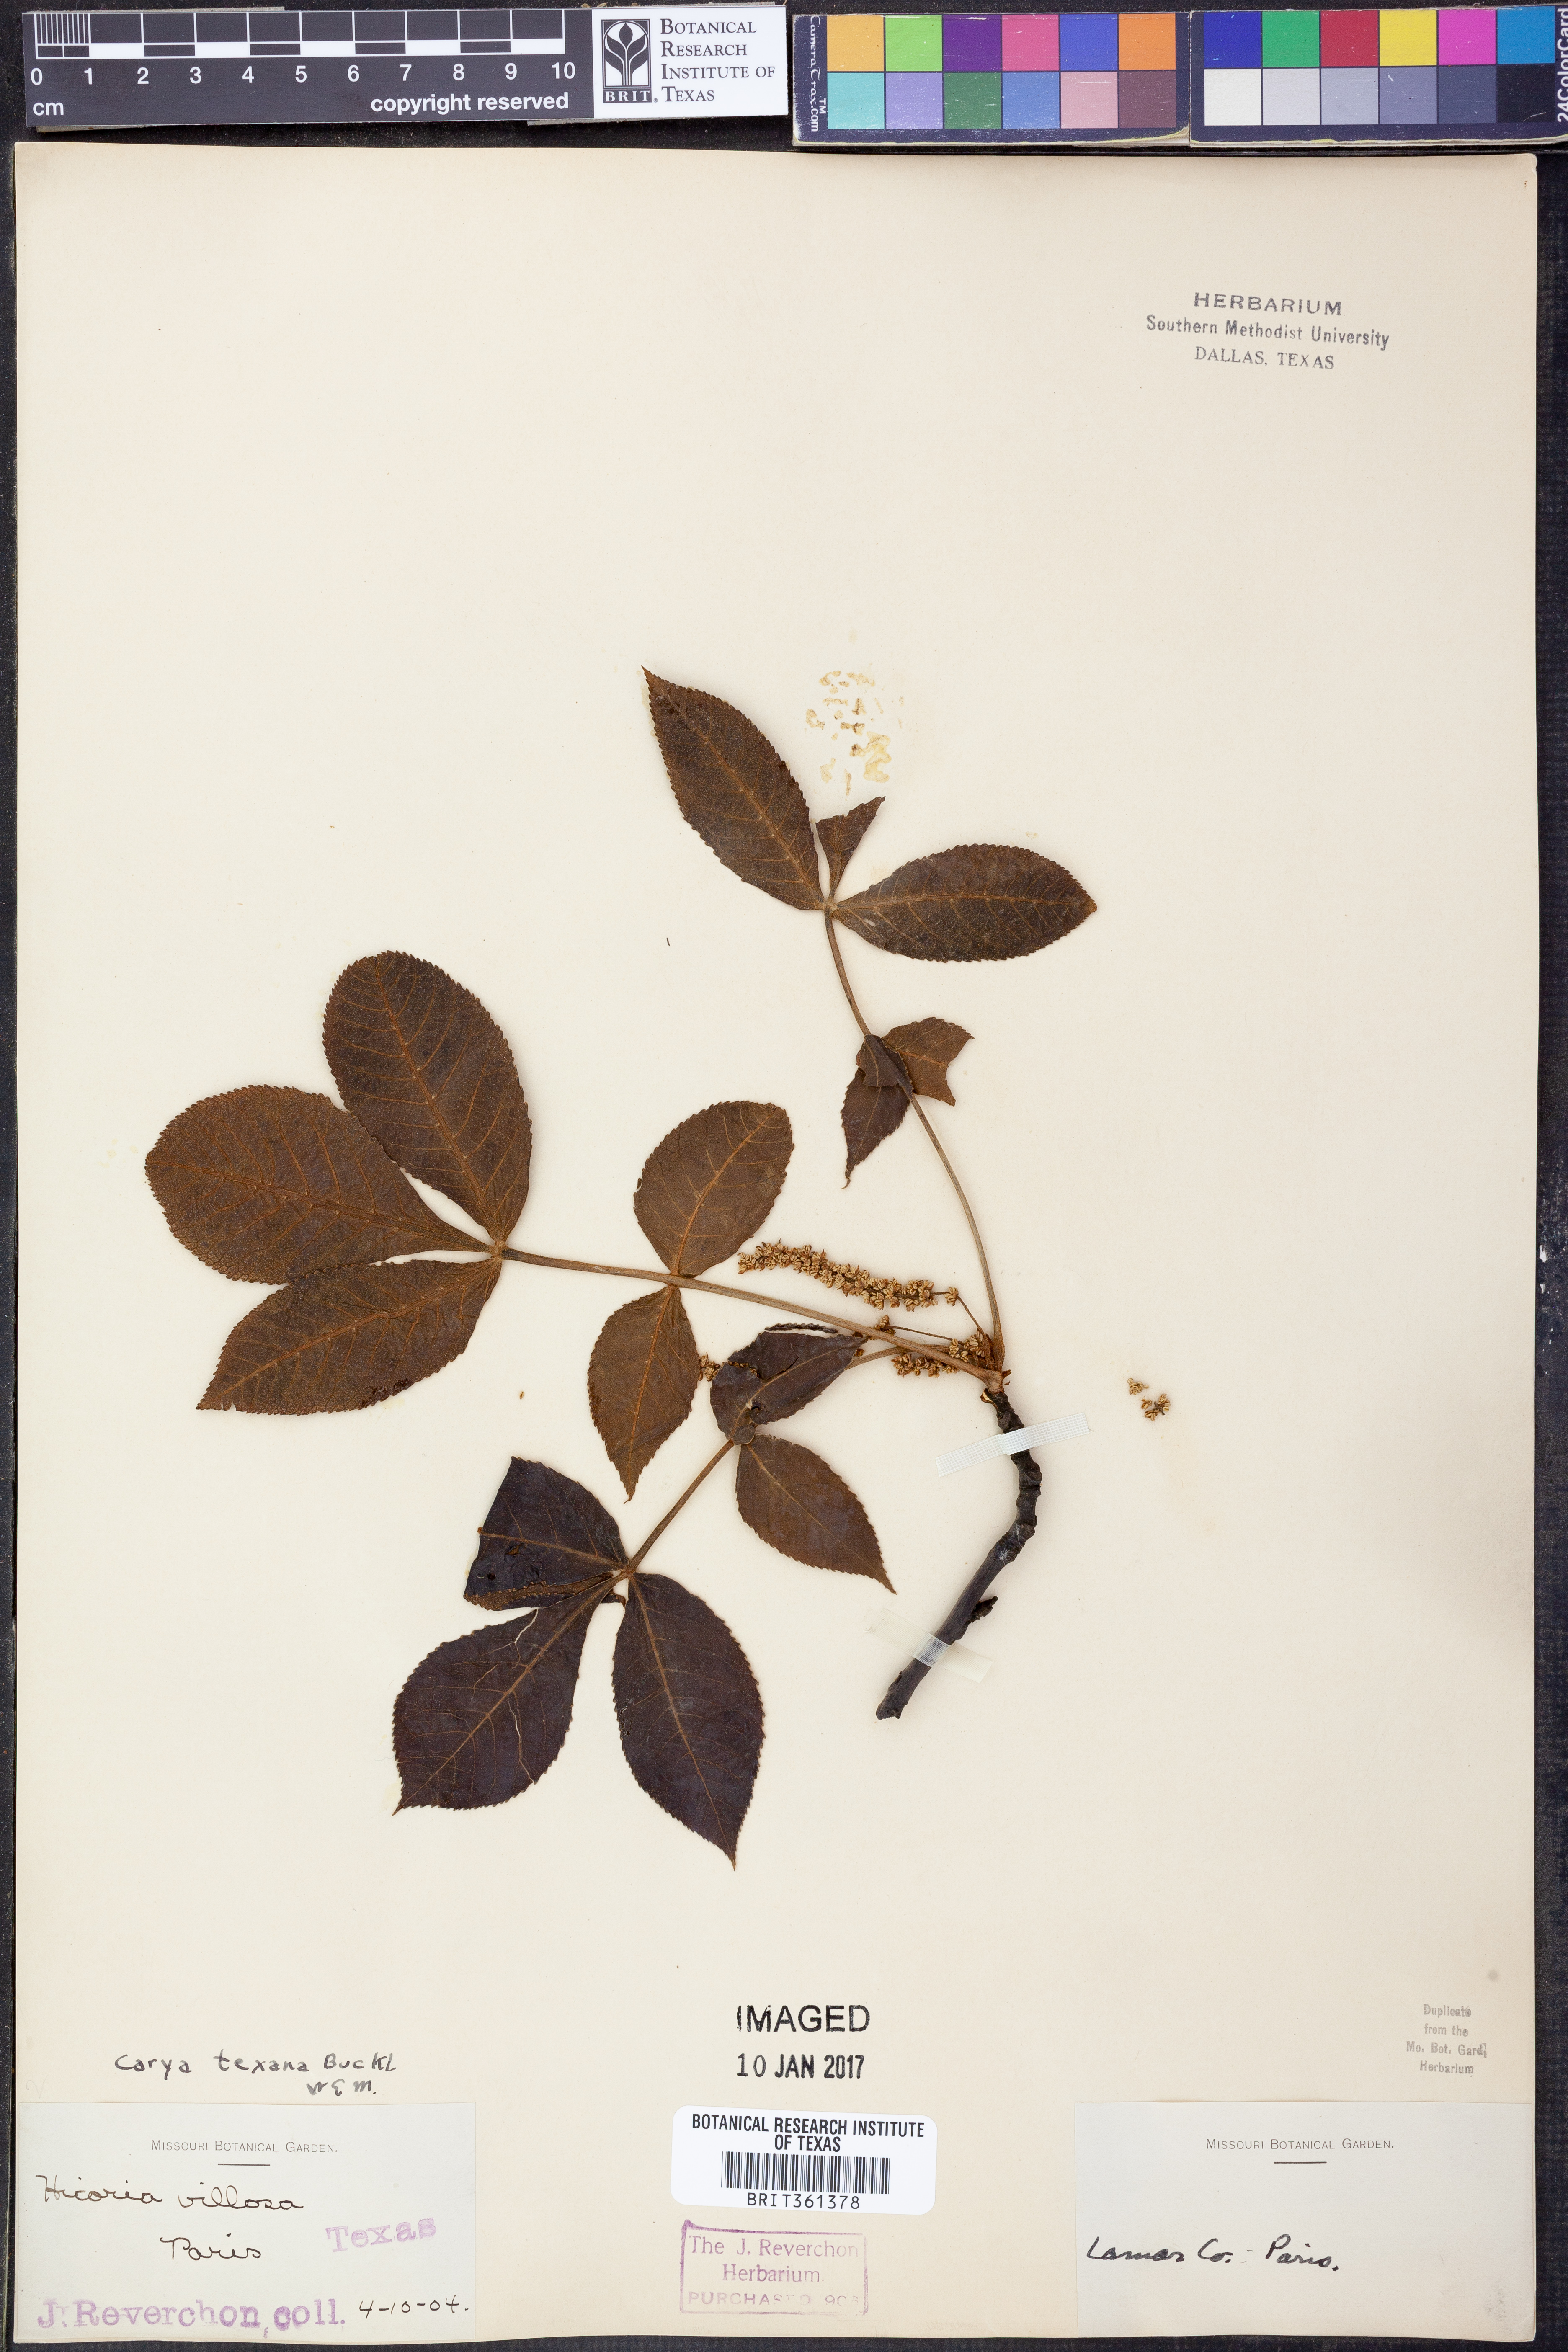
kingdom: Plantae
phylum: Tracheophyta
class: Magnoliopsida
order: Fagales
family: Juglandaceae
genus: Carya
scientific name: Carya texana
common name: Black hickory
